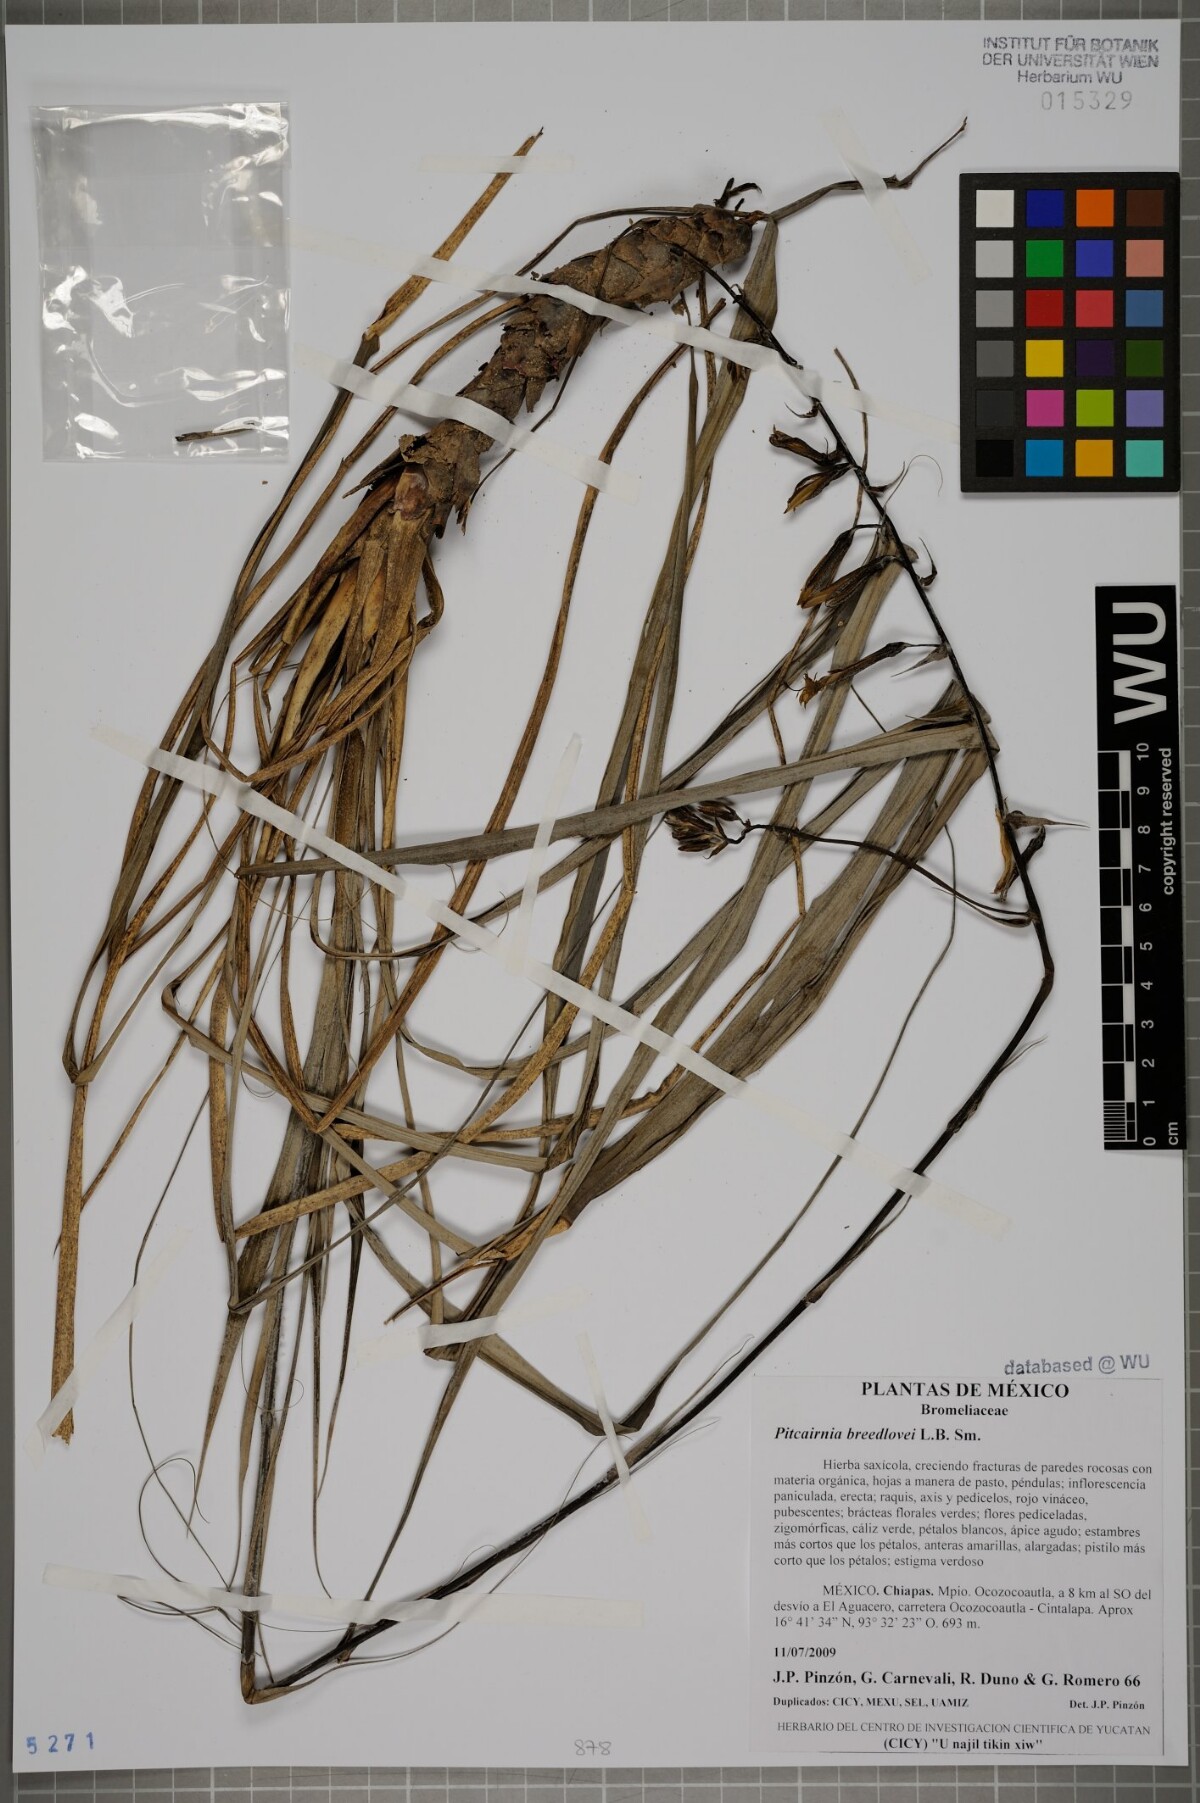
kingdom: Plantae
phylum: Tracheophyta
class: Liliopsida
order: Poales
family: Bromeliaceae
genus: Pitcairnia
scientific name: Pitcairnia breedlovei
